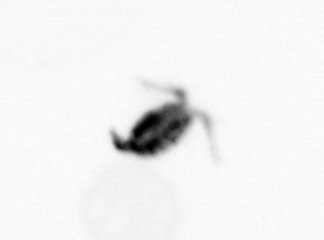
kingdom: Animalia
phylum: Arthropoda
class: Copepoda
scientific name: Copepoda
